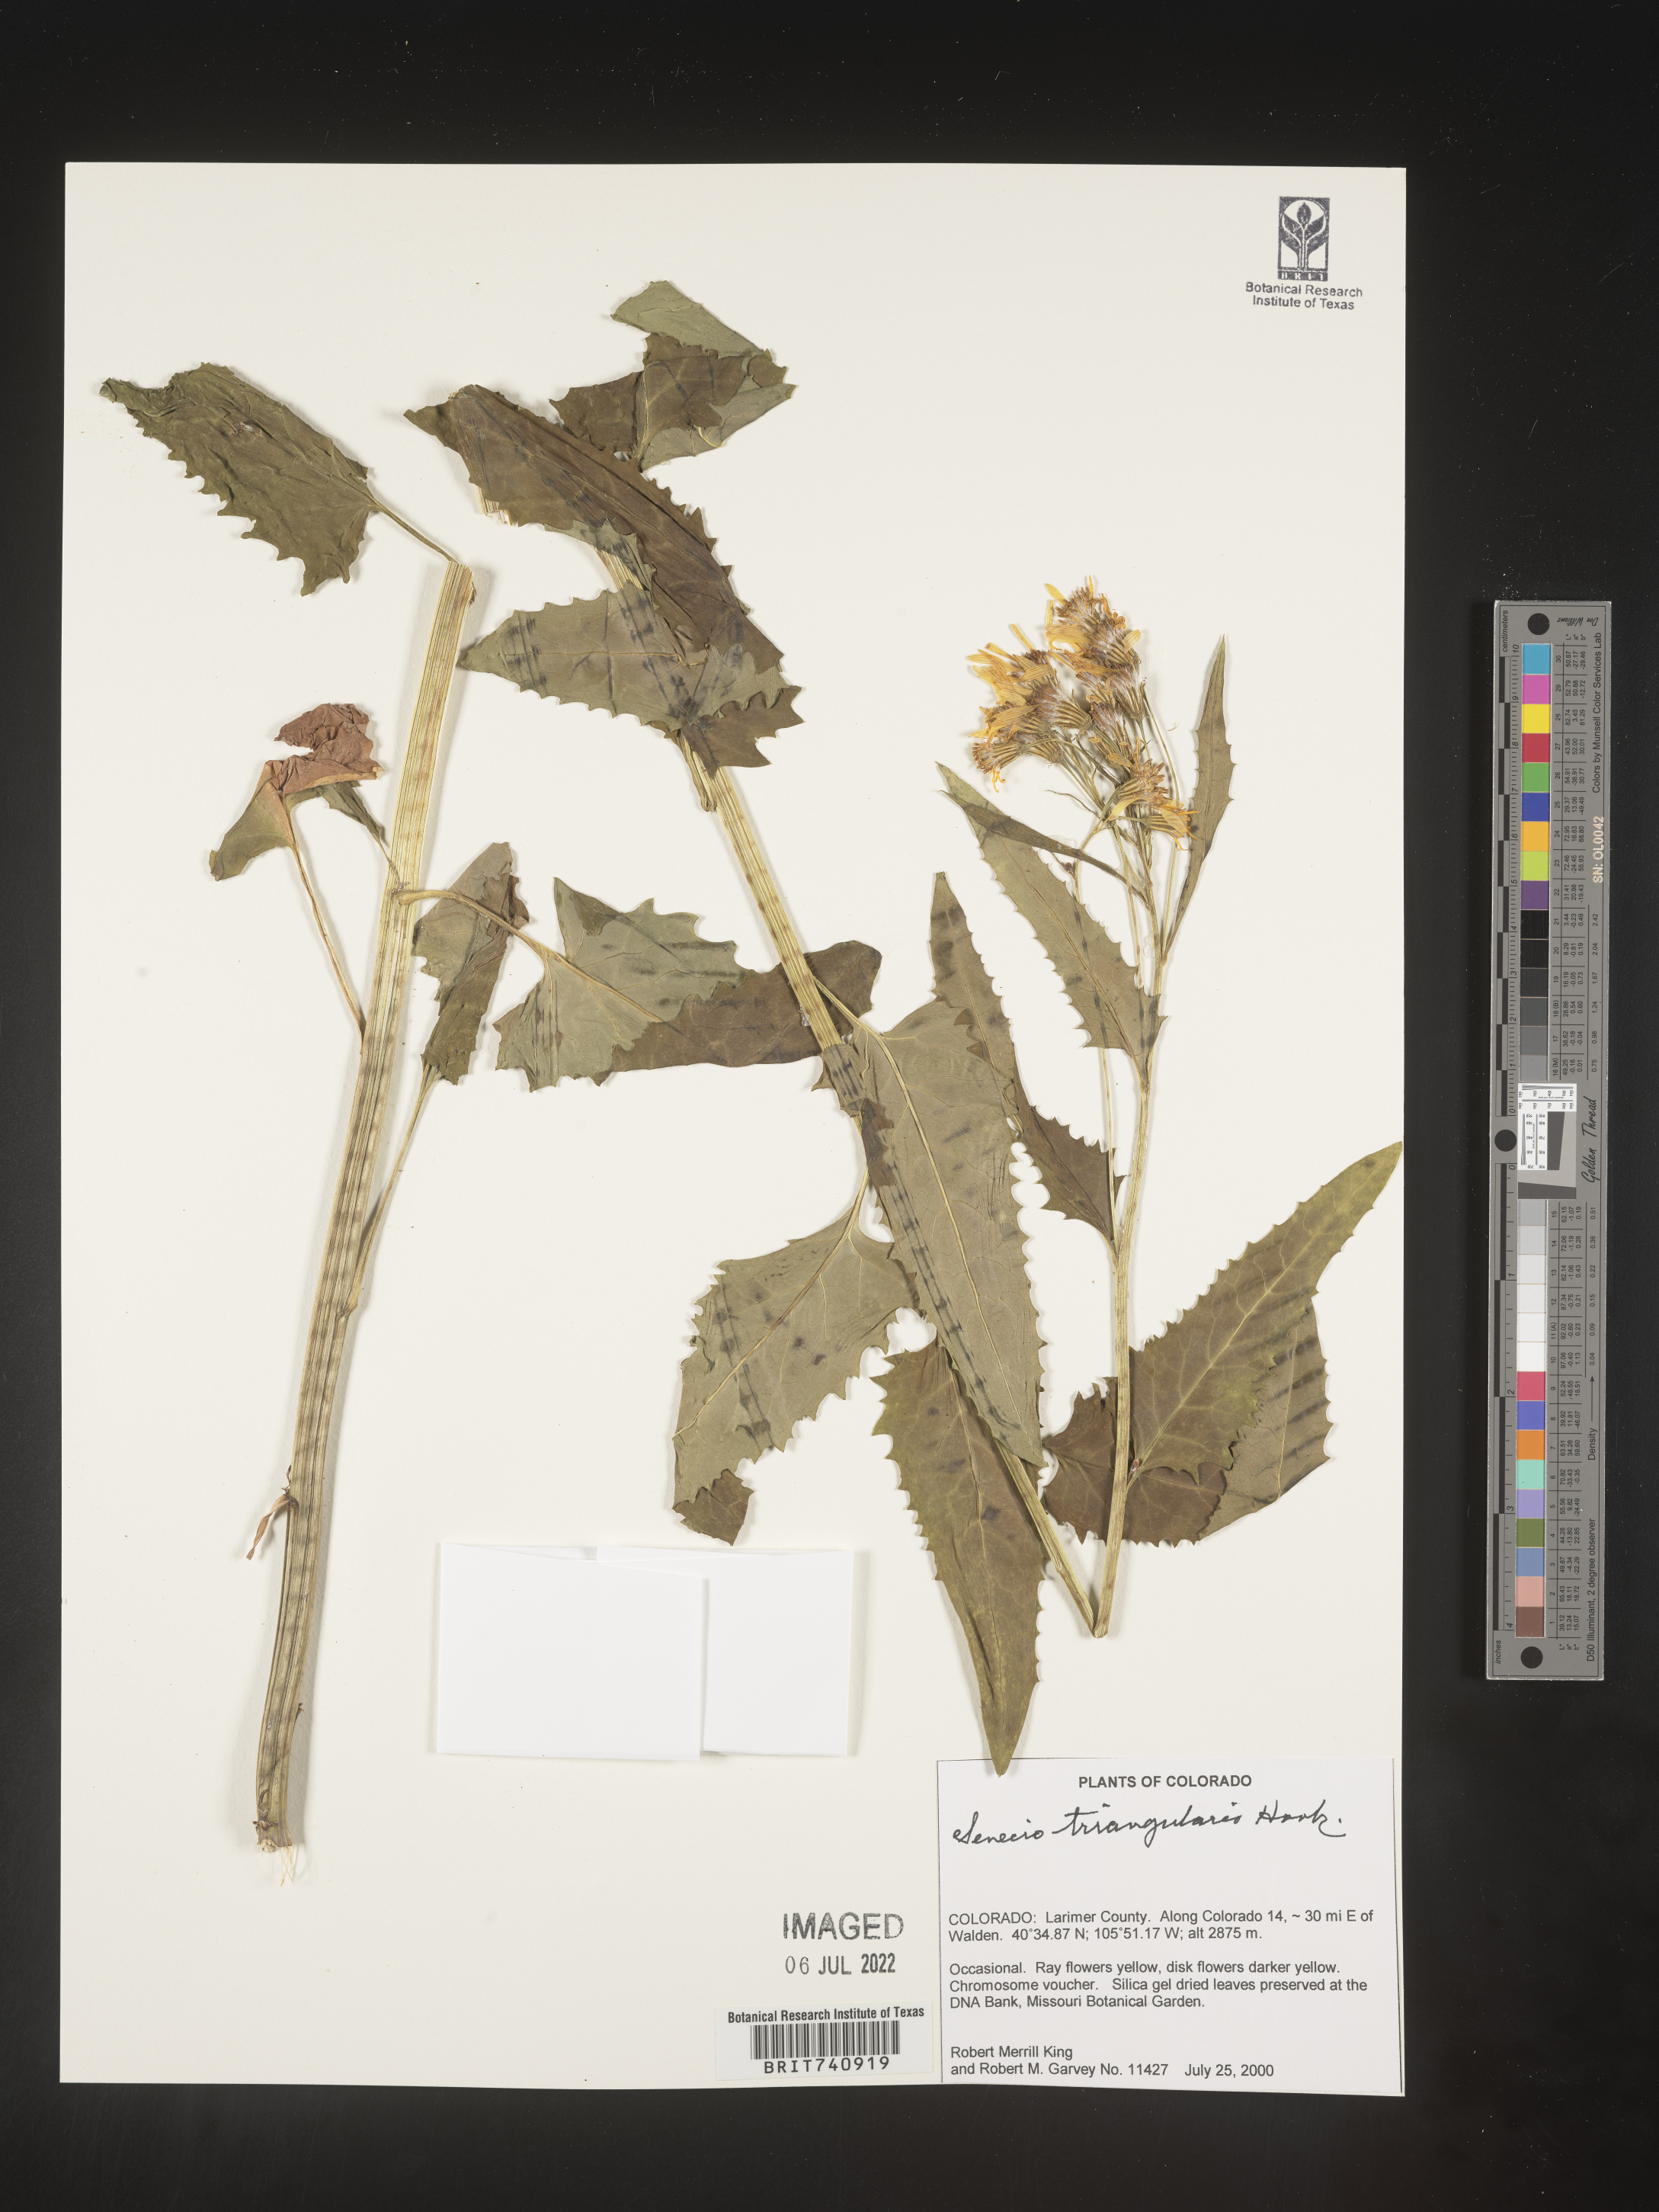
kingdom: Plantae
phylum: Tracheophyta
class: Magnoliopsida
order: Asterales
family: Asteraceae
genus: Senecio
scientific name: Senecio triangularis
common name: Arrowleaf butterweed
